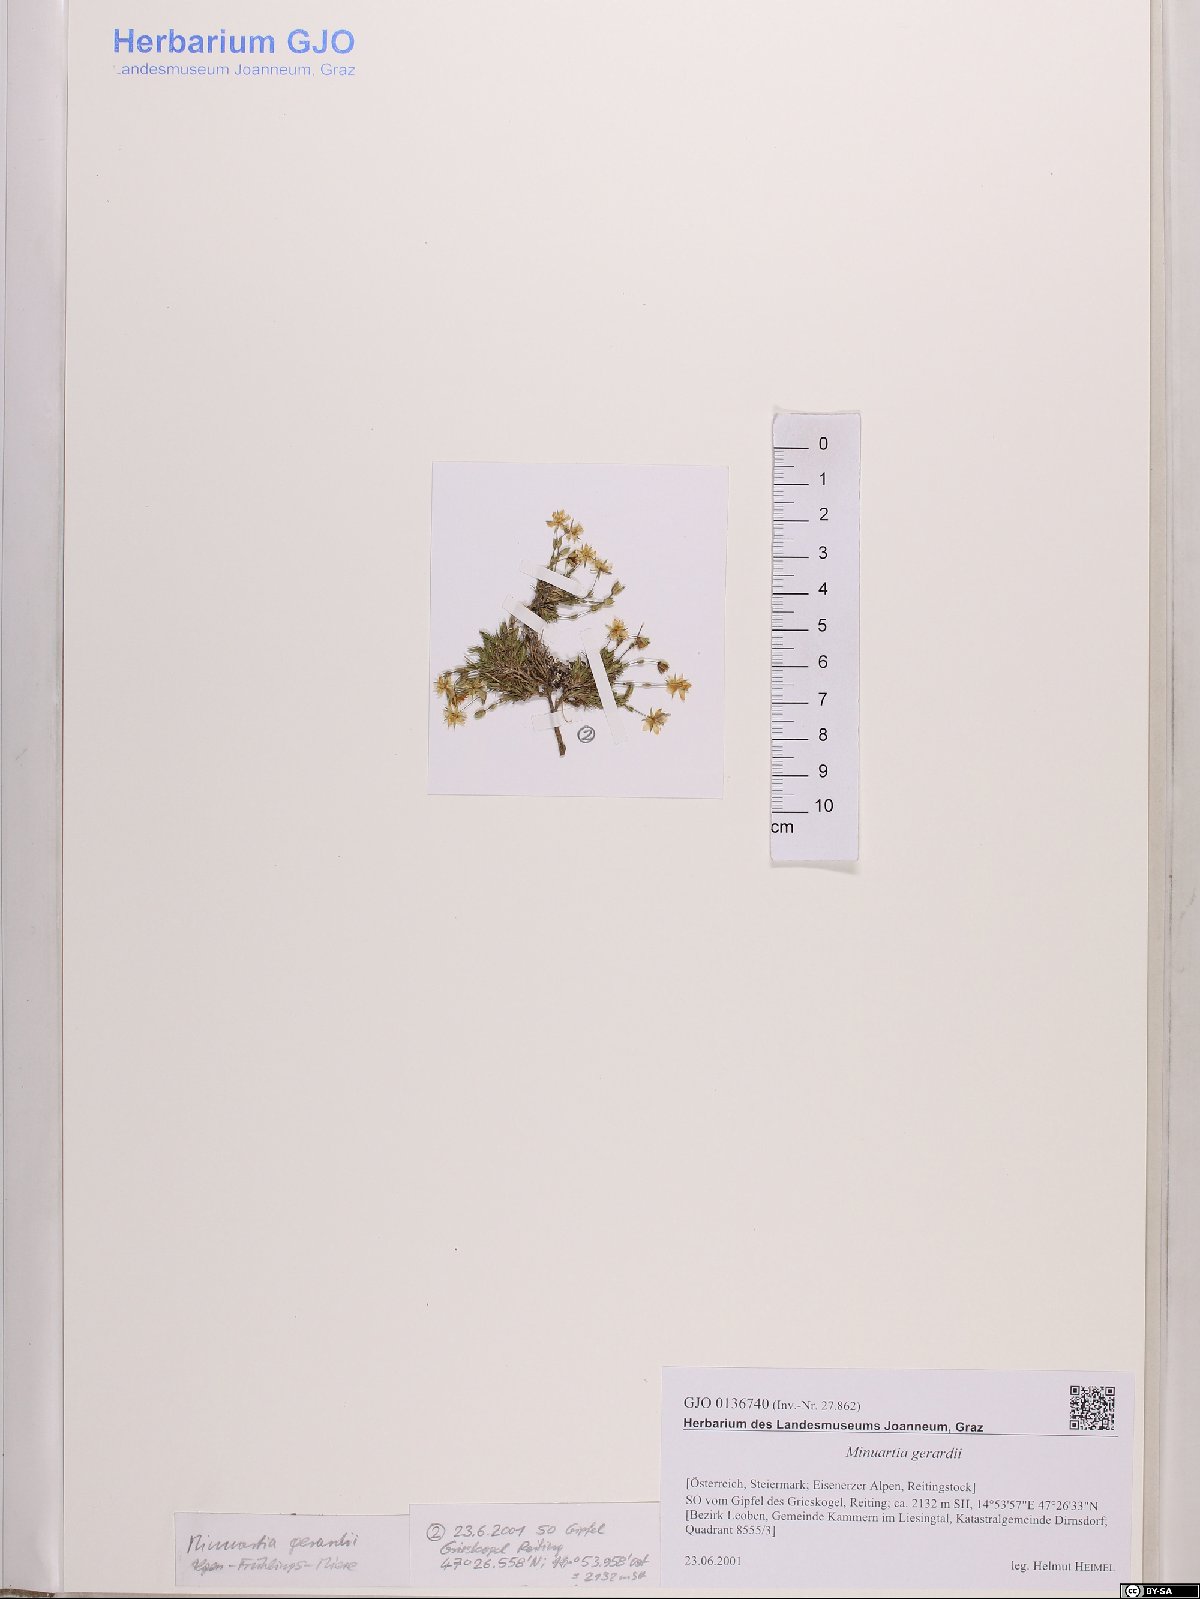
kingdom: Plantae
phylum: Tracheophyta
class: Magnoliopsida
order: Caryophyllales
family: Caryophyllaceae
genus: Sabulina
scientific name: Sabulina verna
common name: Spring sandwort
